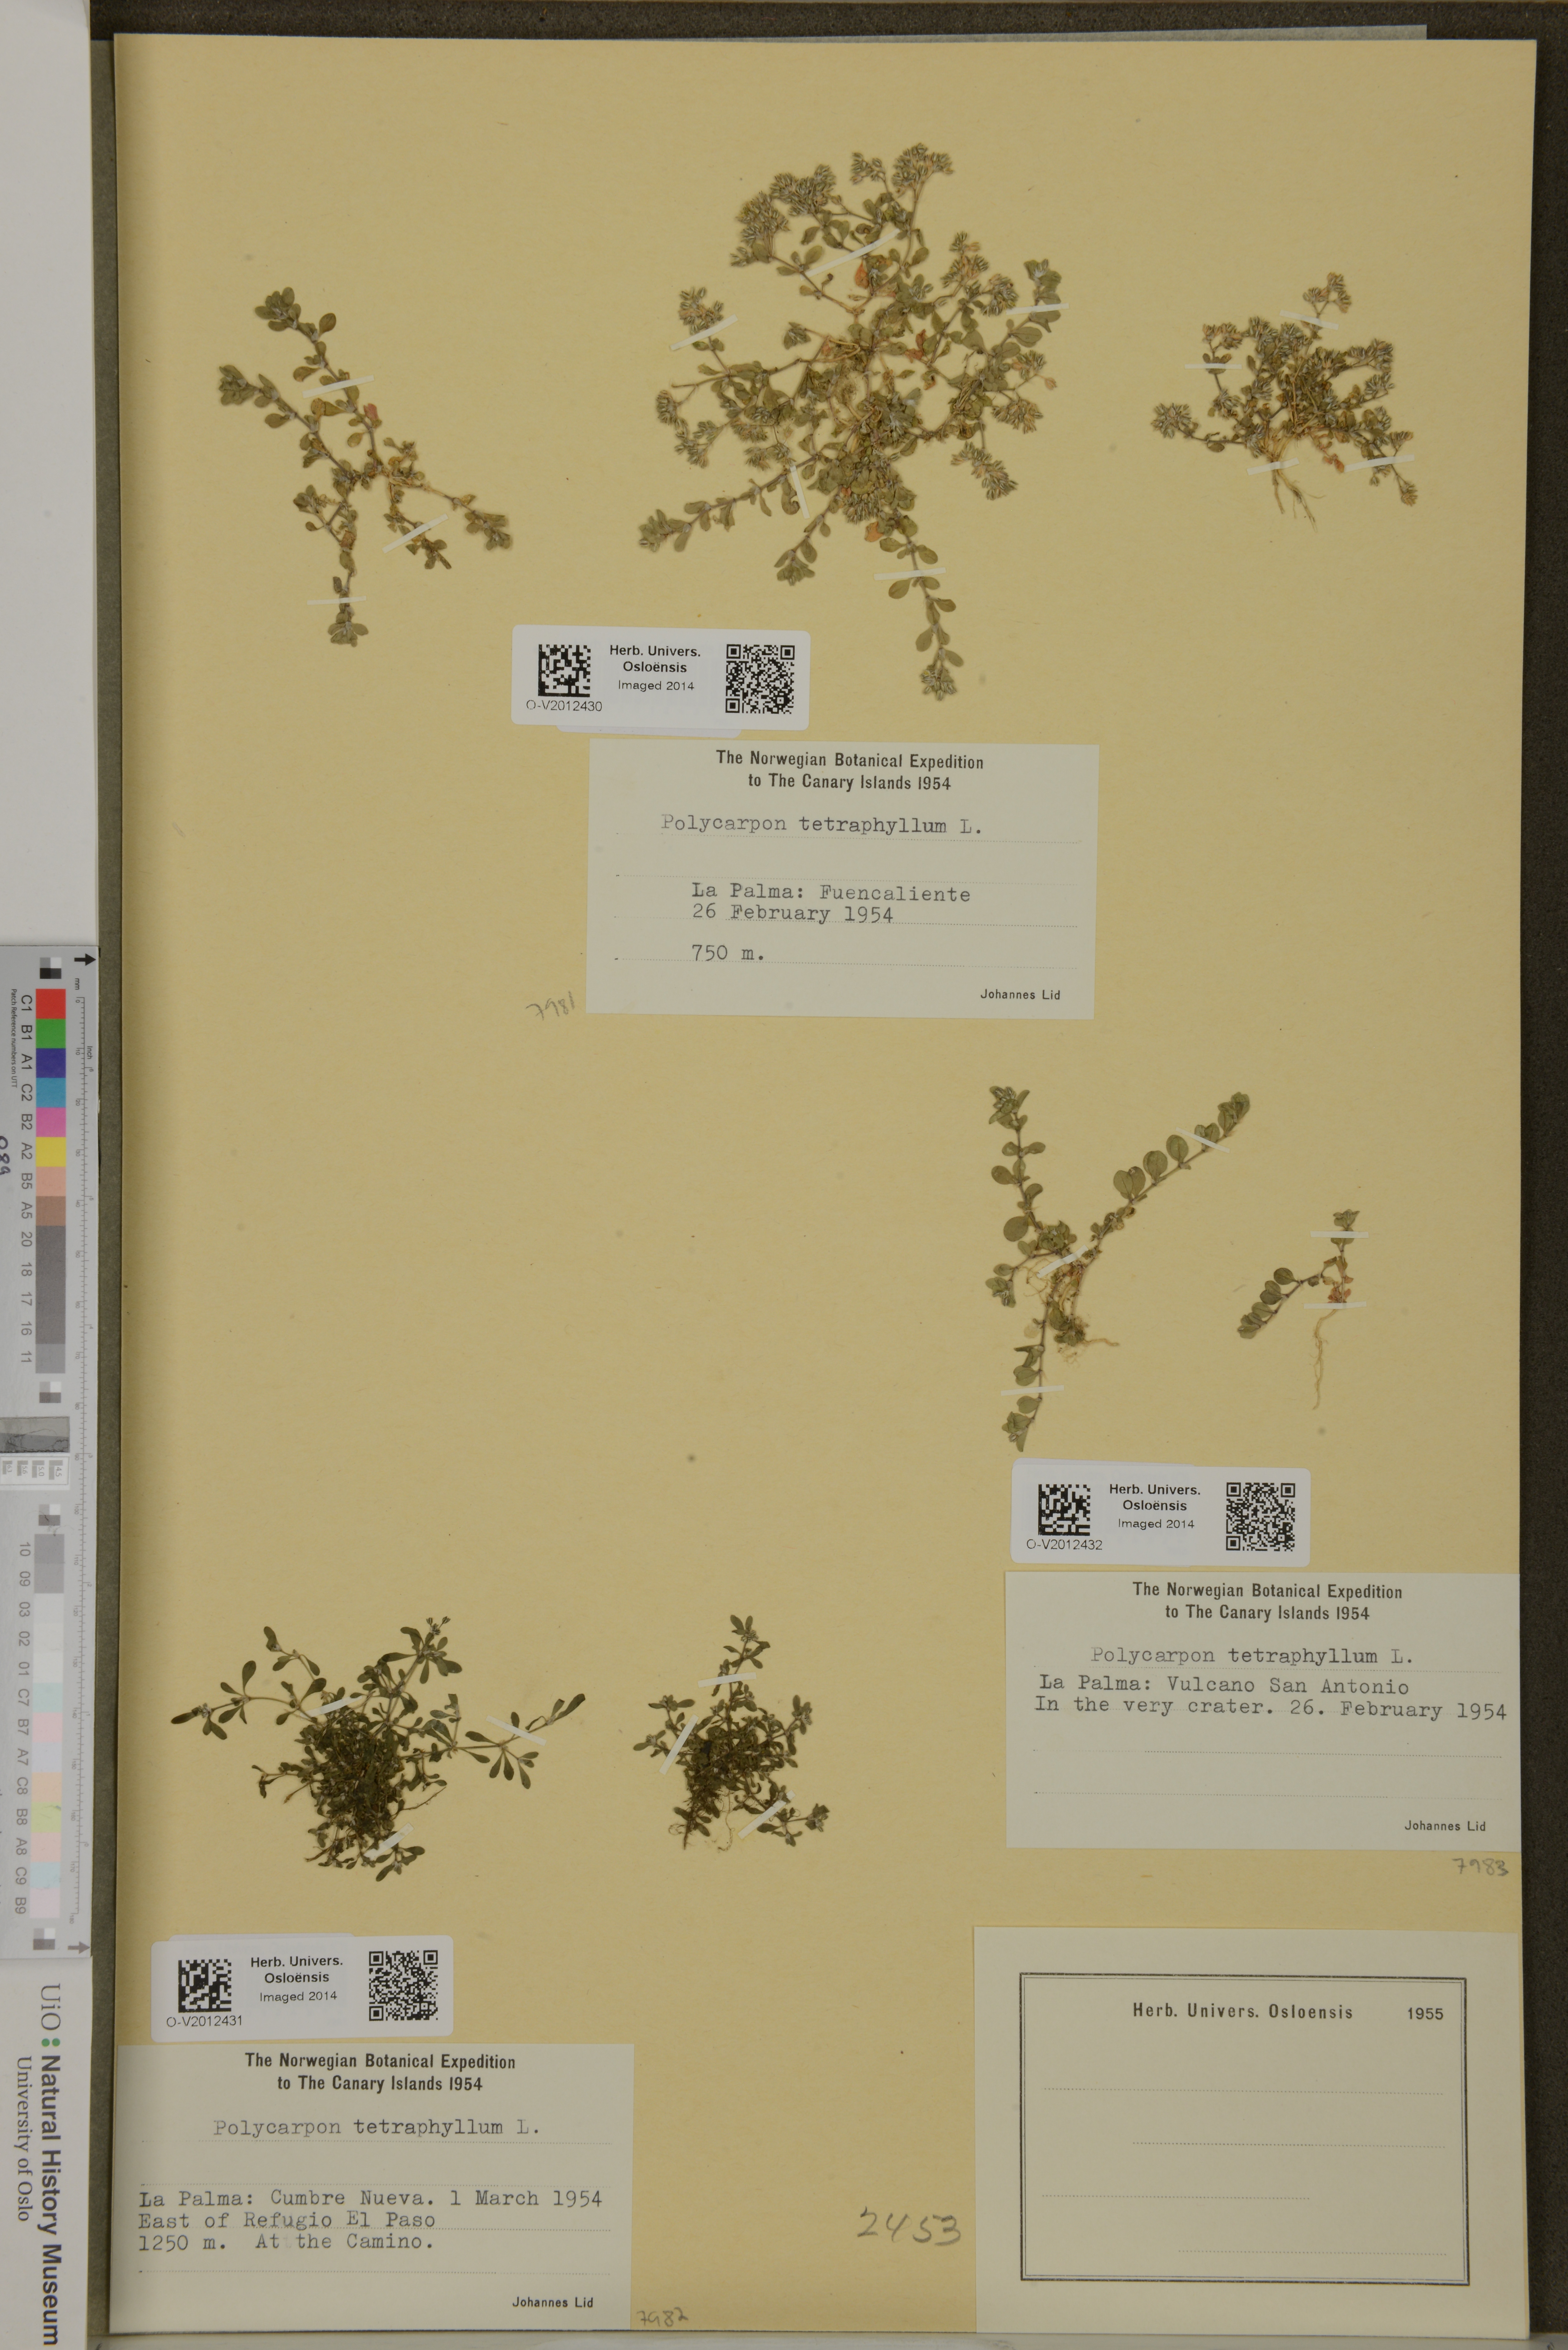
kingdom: Plantae
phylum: Tracheophyta
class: Magnoliopsida
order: Caryophyllales
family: Caryophyllaceae
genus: Polycarpon
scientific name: Polycarpon tetraphyllum
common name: Four-leaved all-seed
